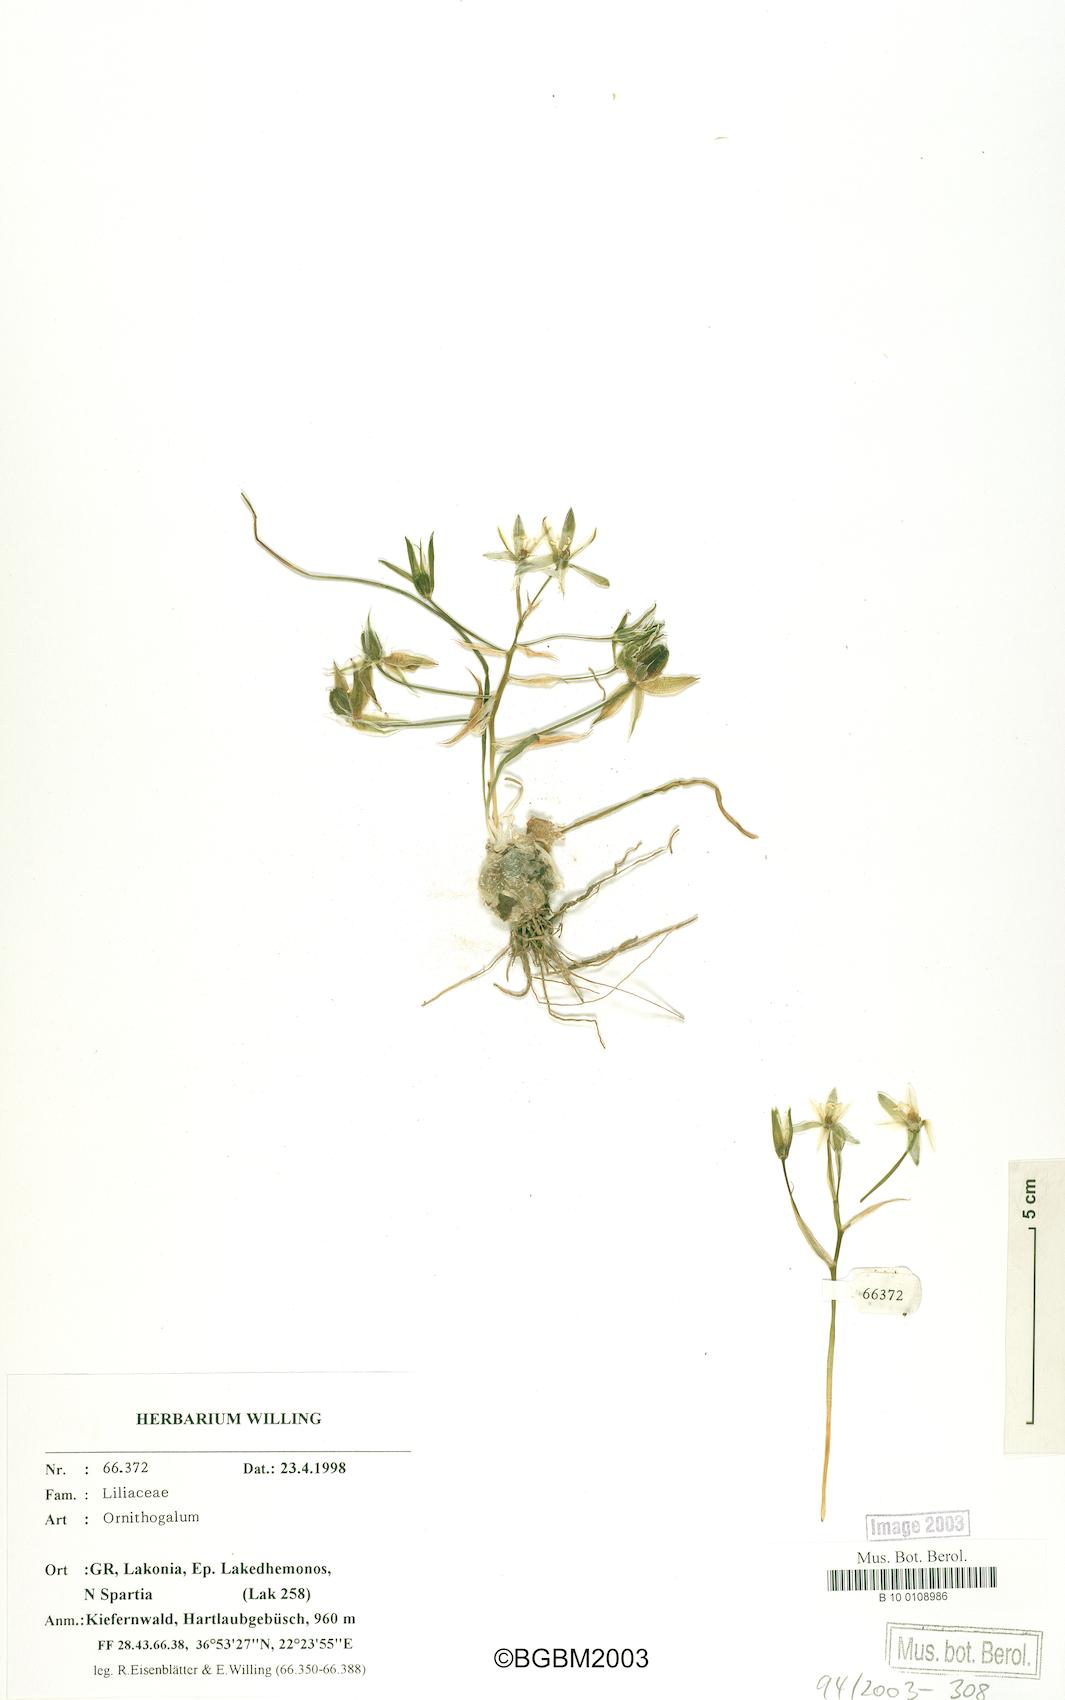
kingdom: Plantae
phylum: Tracheophyta
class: Liliopsida
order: Asparagales
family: Asparagaceae
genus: Ornithogalum
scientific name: Ornithogalum
